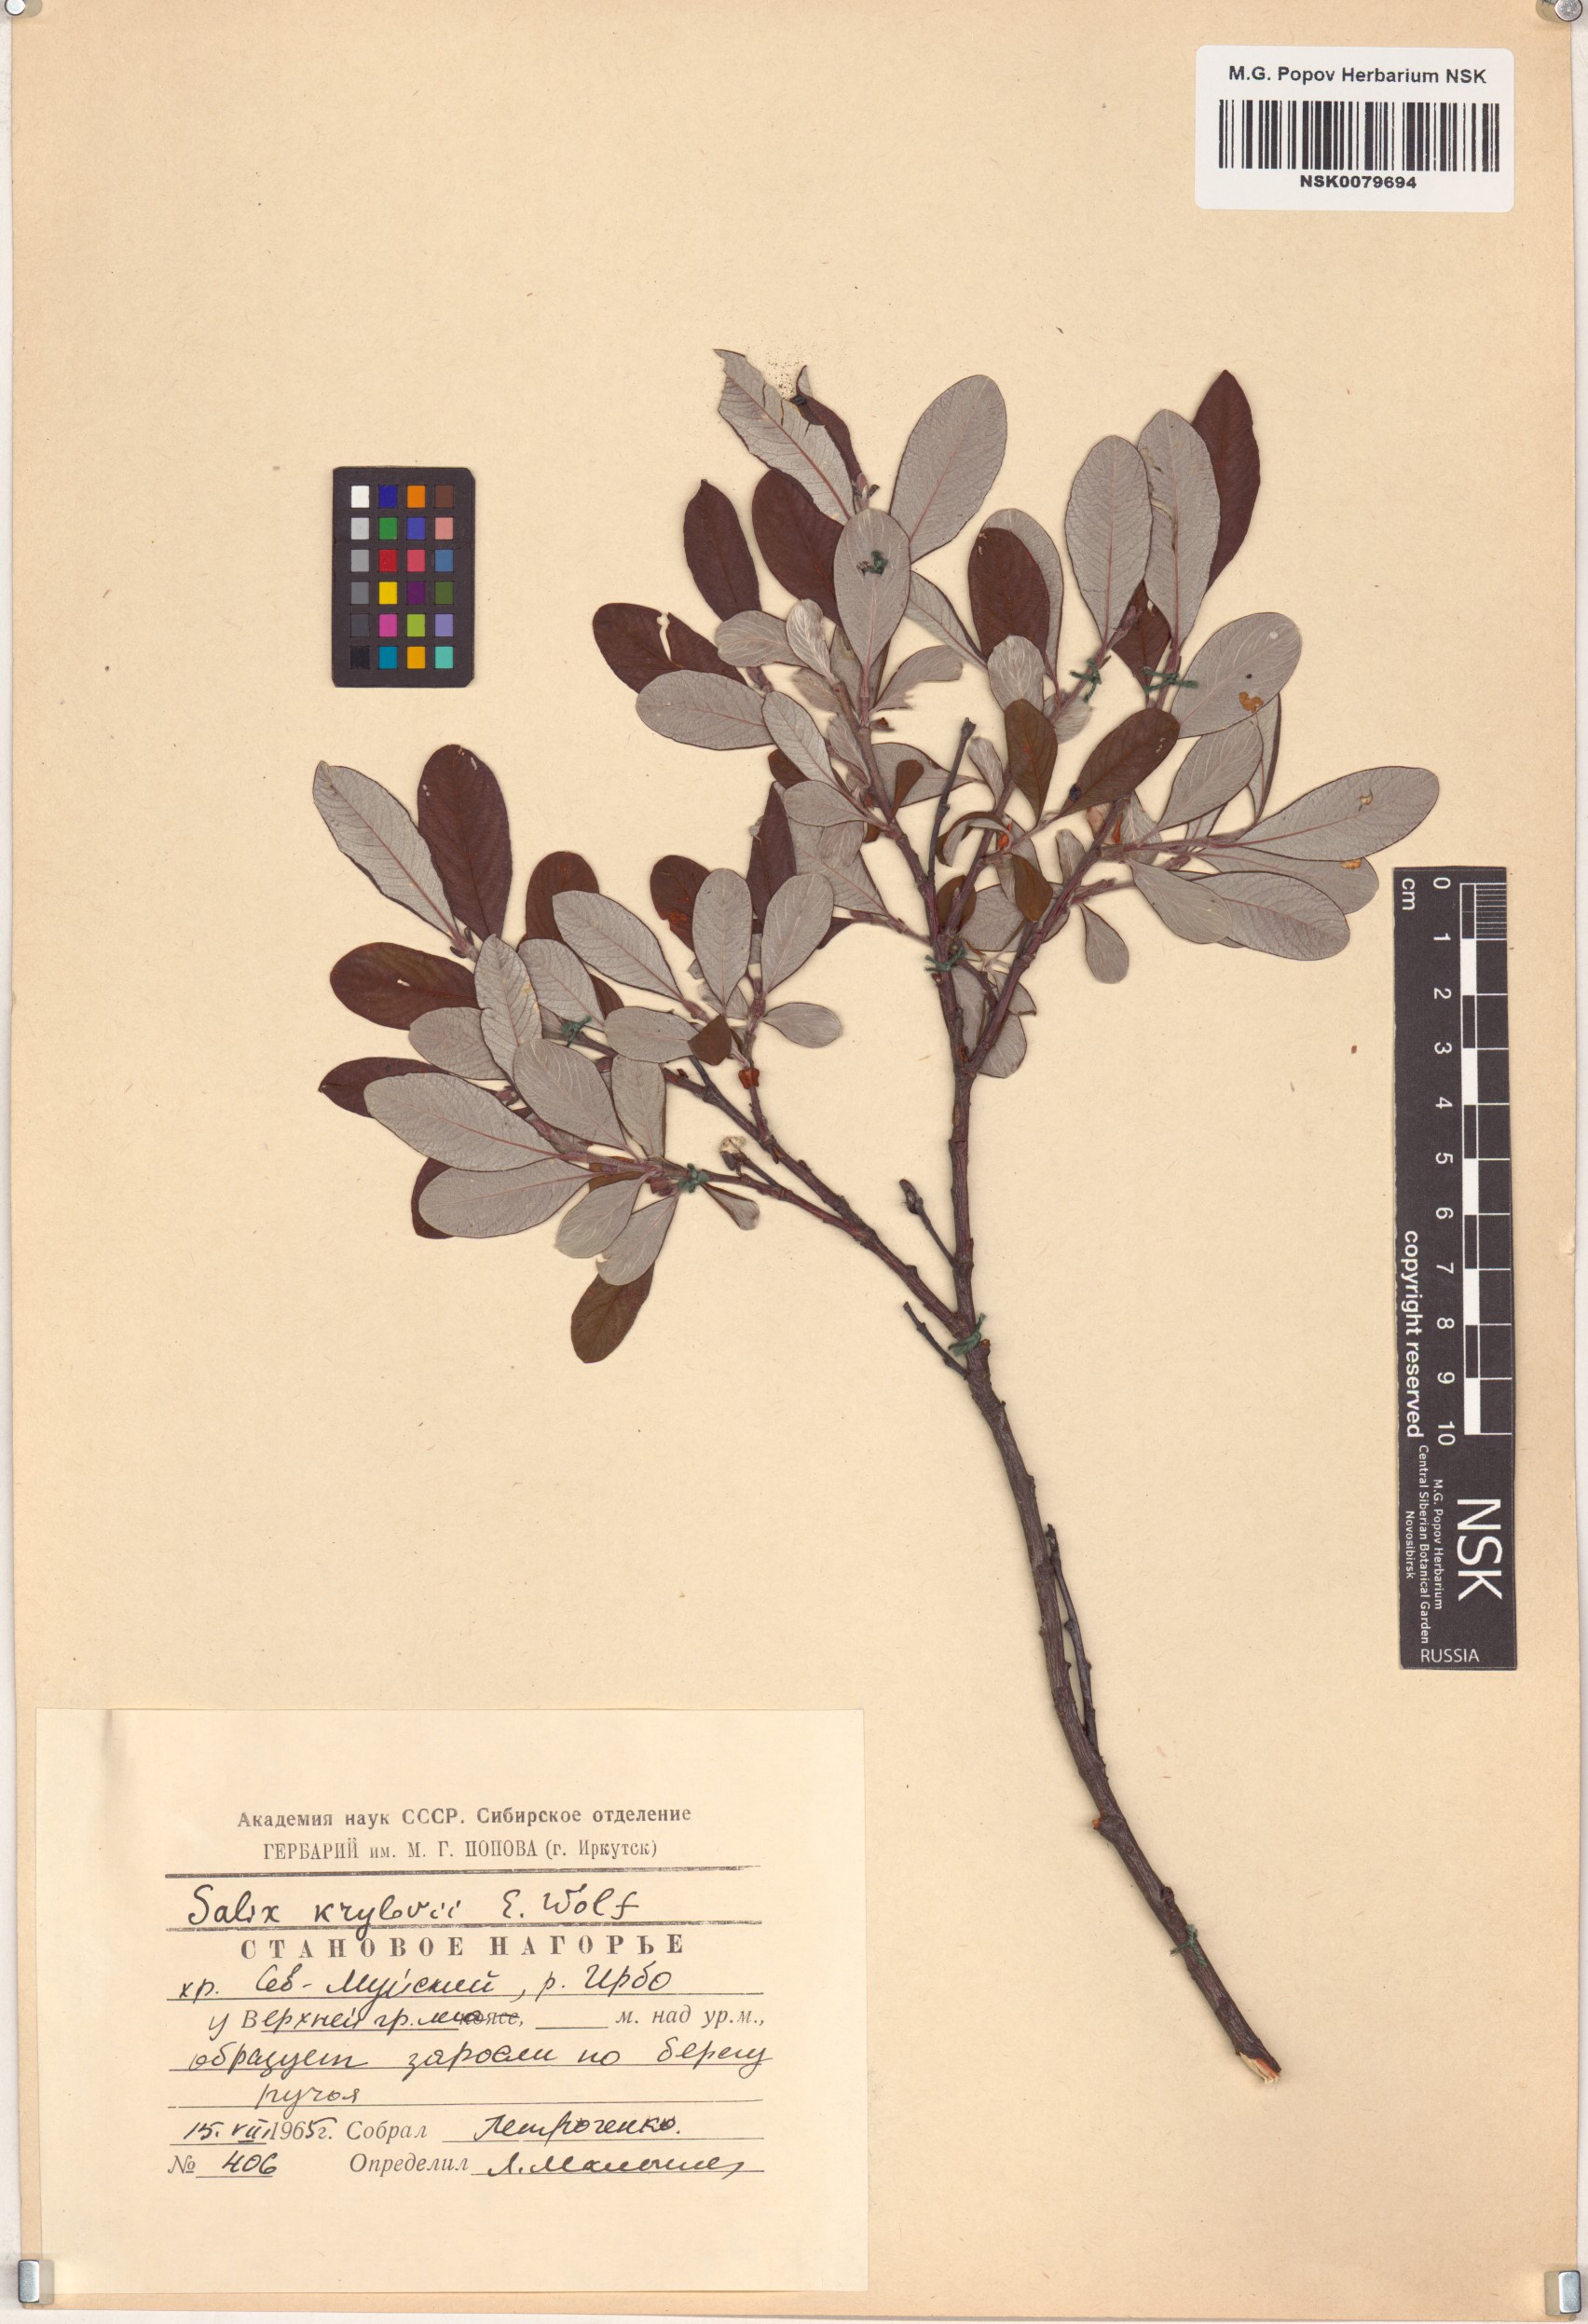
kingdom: Plantae
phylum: Tracheophyta
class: Magnoliopsida
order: Malpighiales
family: Salicaceae
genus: Salix
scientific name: Salix krylovii
